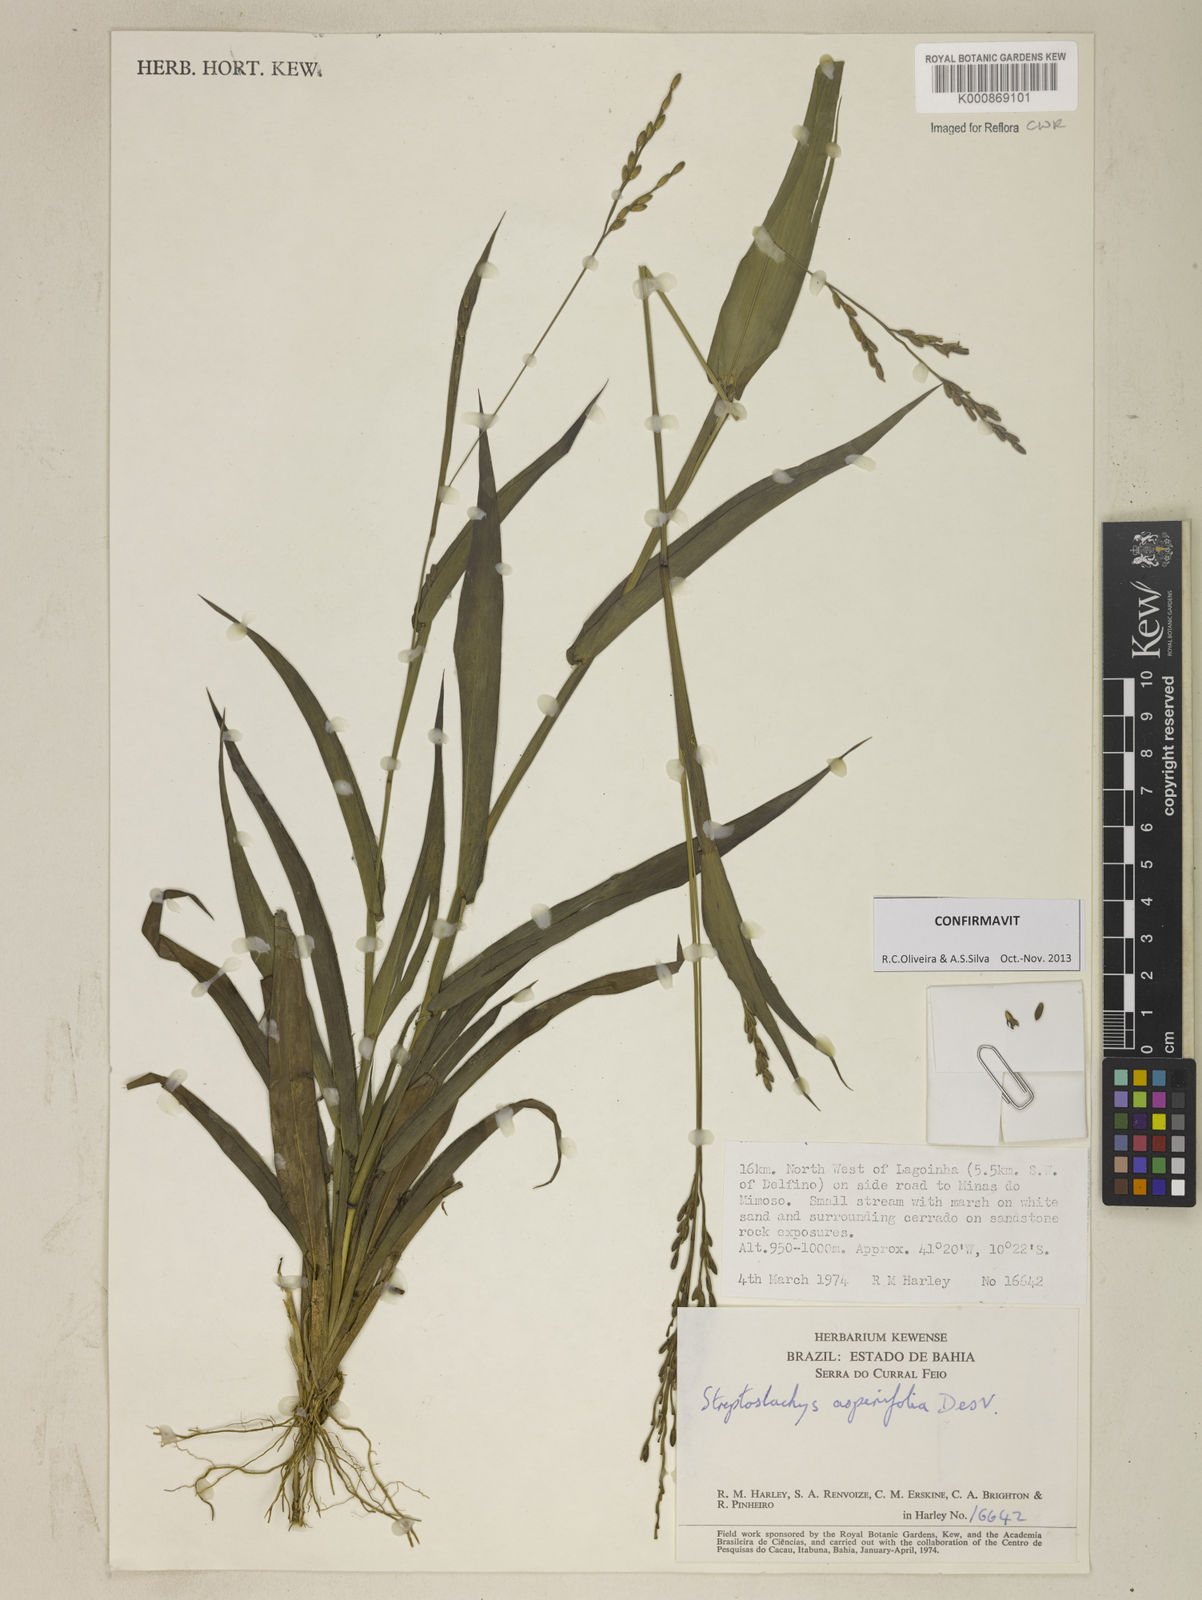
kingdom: Plantae
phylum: Tracheophyta
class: Liliopsida
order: Poales
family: Poaceae
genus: Streptostachys
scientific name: Streptostachys asperifolia
